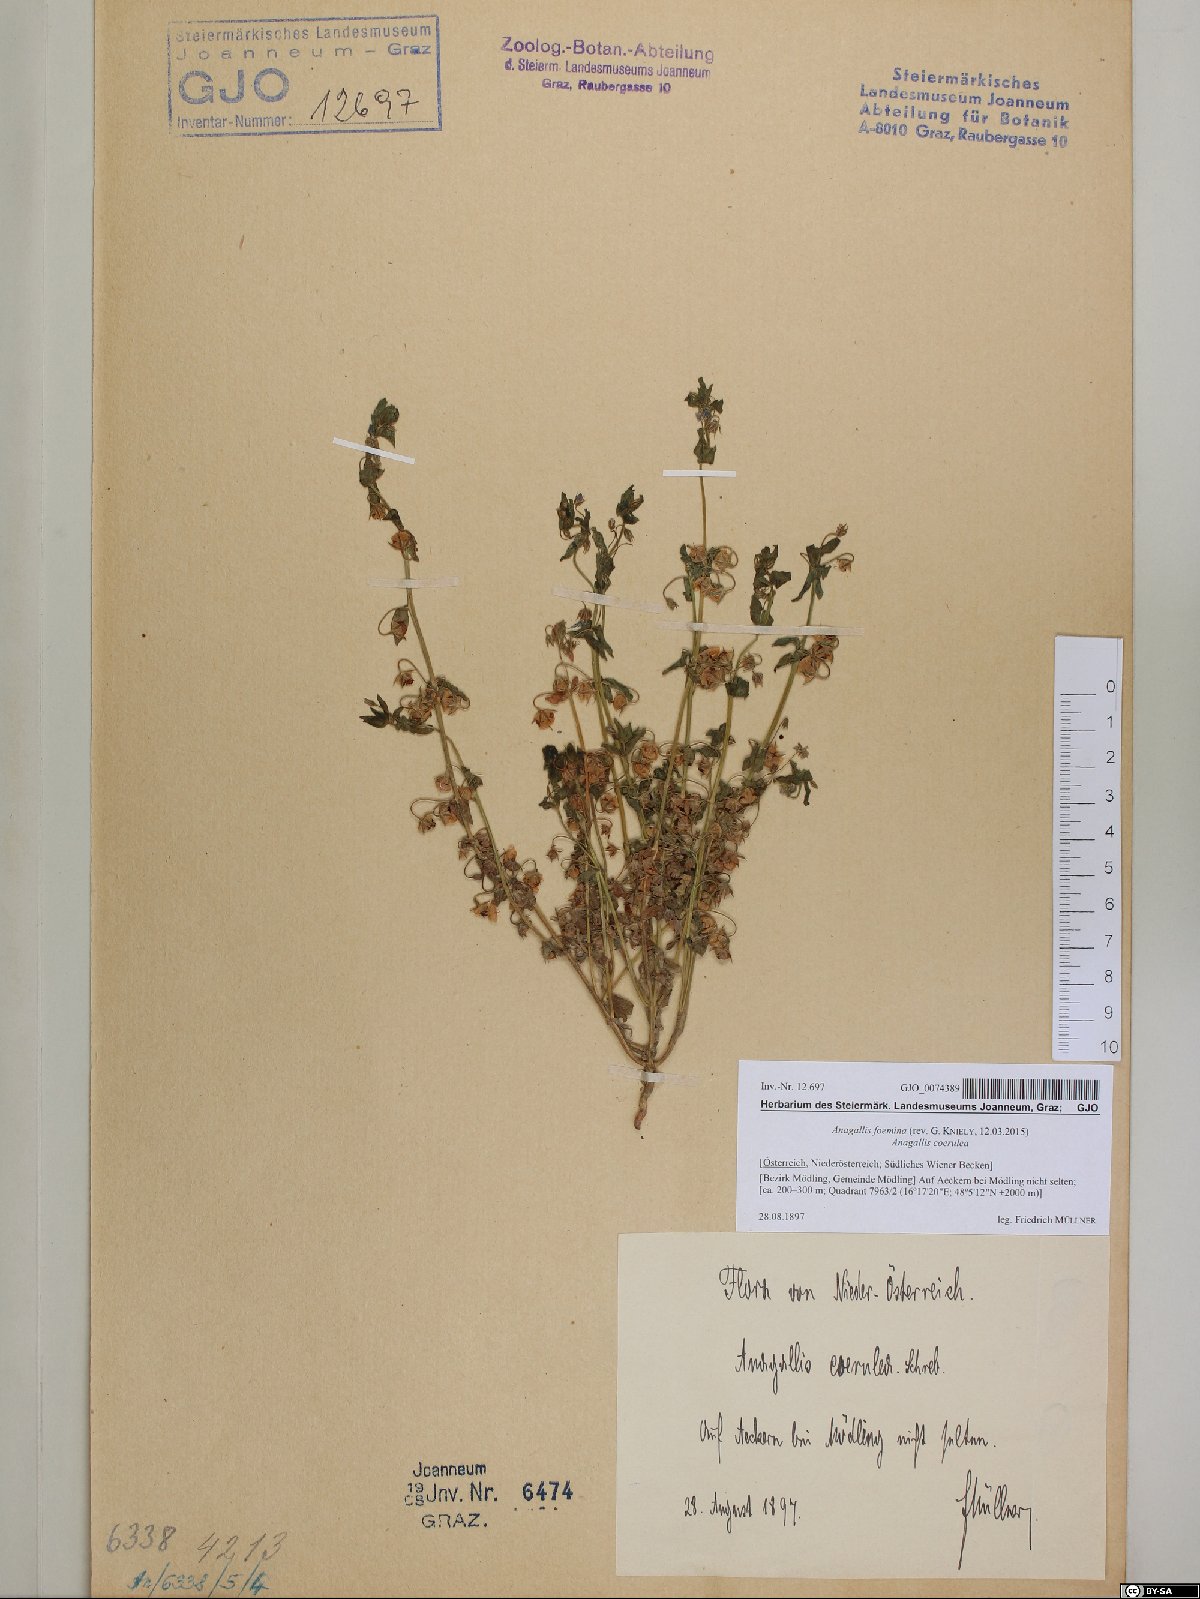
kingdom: Plantae
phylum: Tracheophyta
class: Magnoliopsida
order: Ericales
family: Primulaceae
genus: Lysimachia
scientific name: Lysimachia foemina
